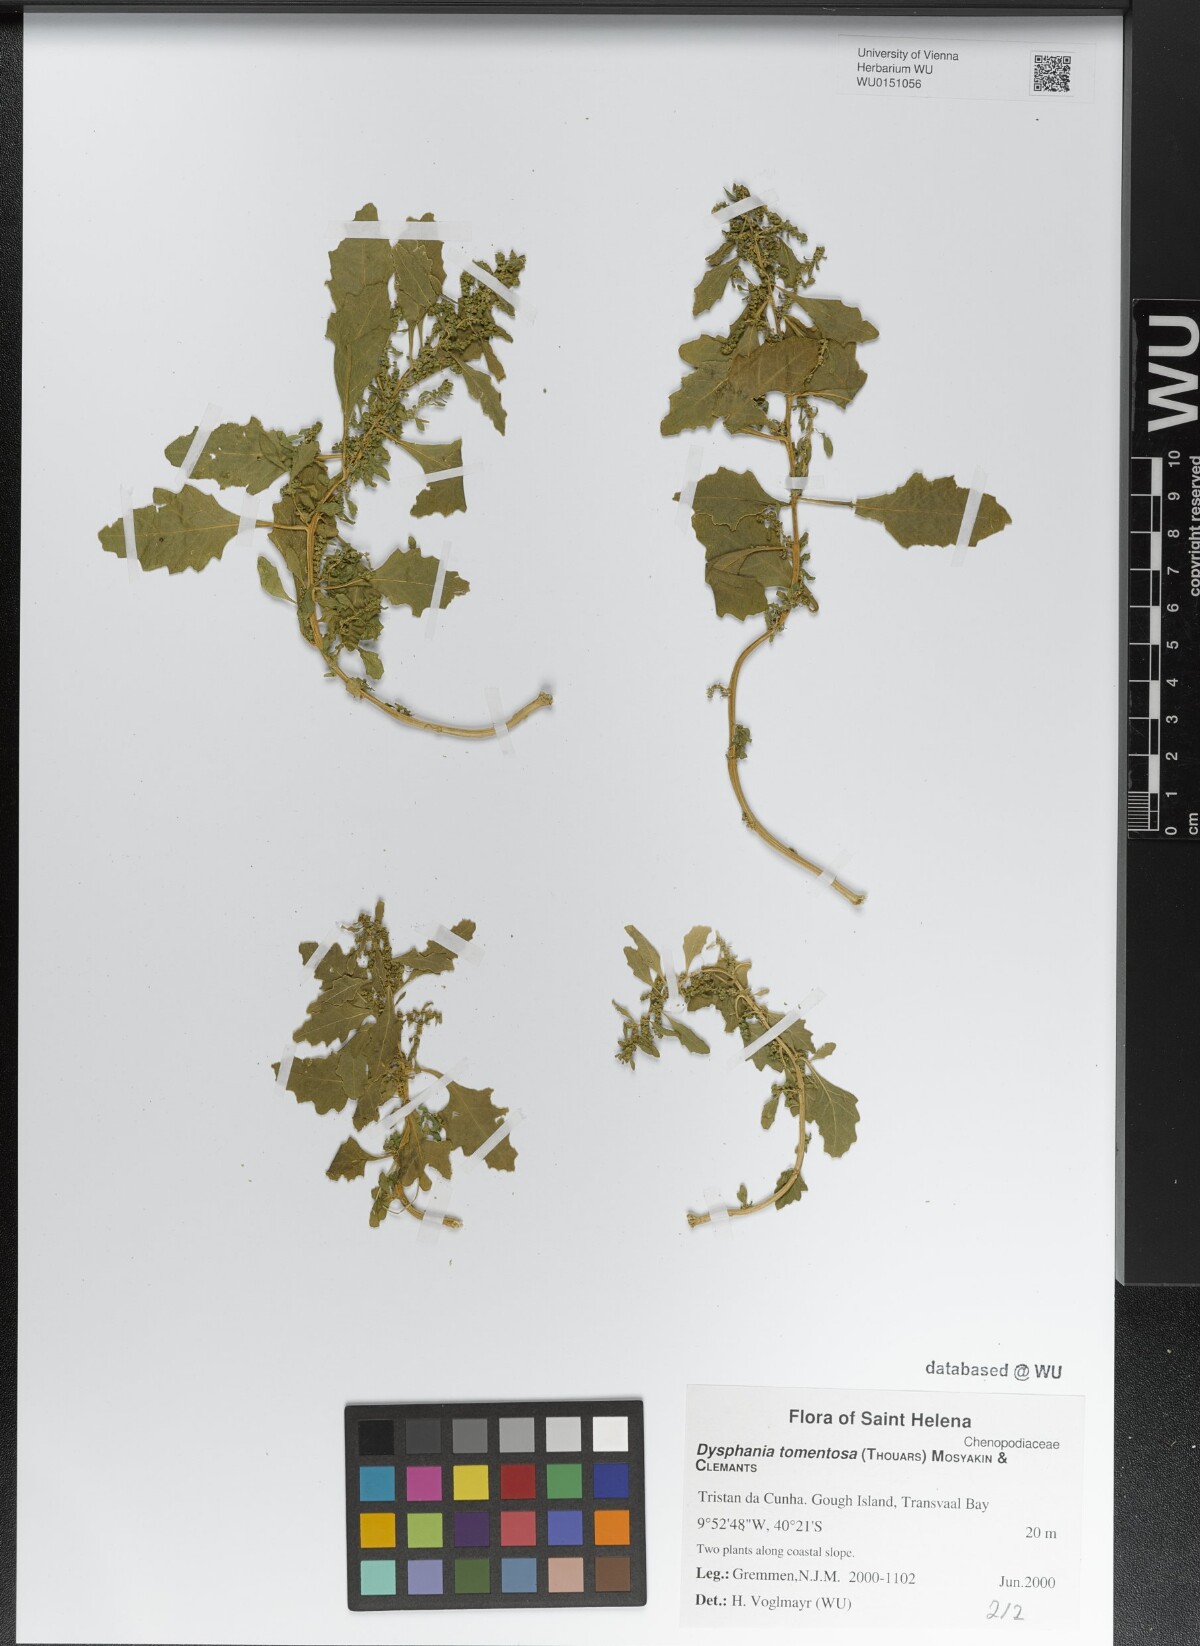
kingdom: Plantae
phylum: Tracheophyta
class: Magnoliopsida
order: Caryophyllales
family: Amaranthaceae
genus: Dysphania
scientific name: Dysphania tomentosa
